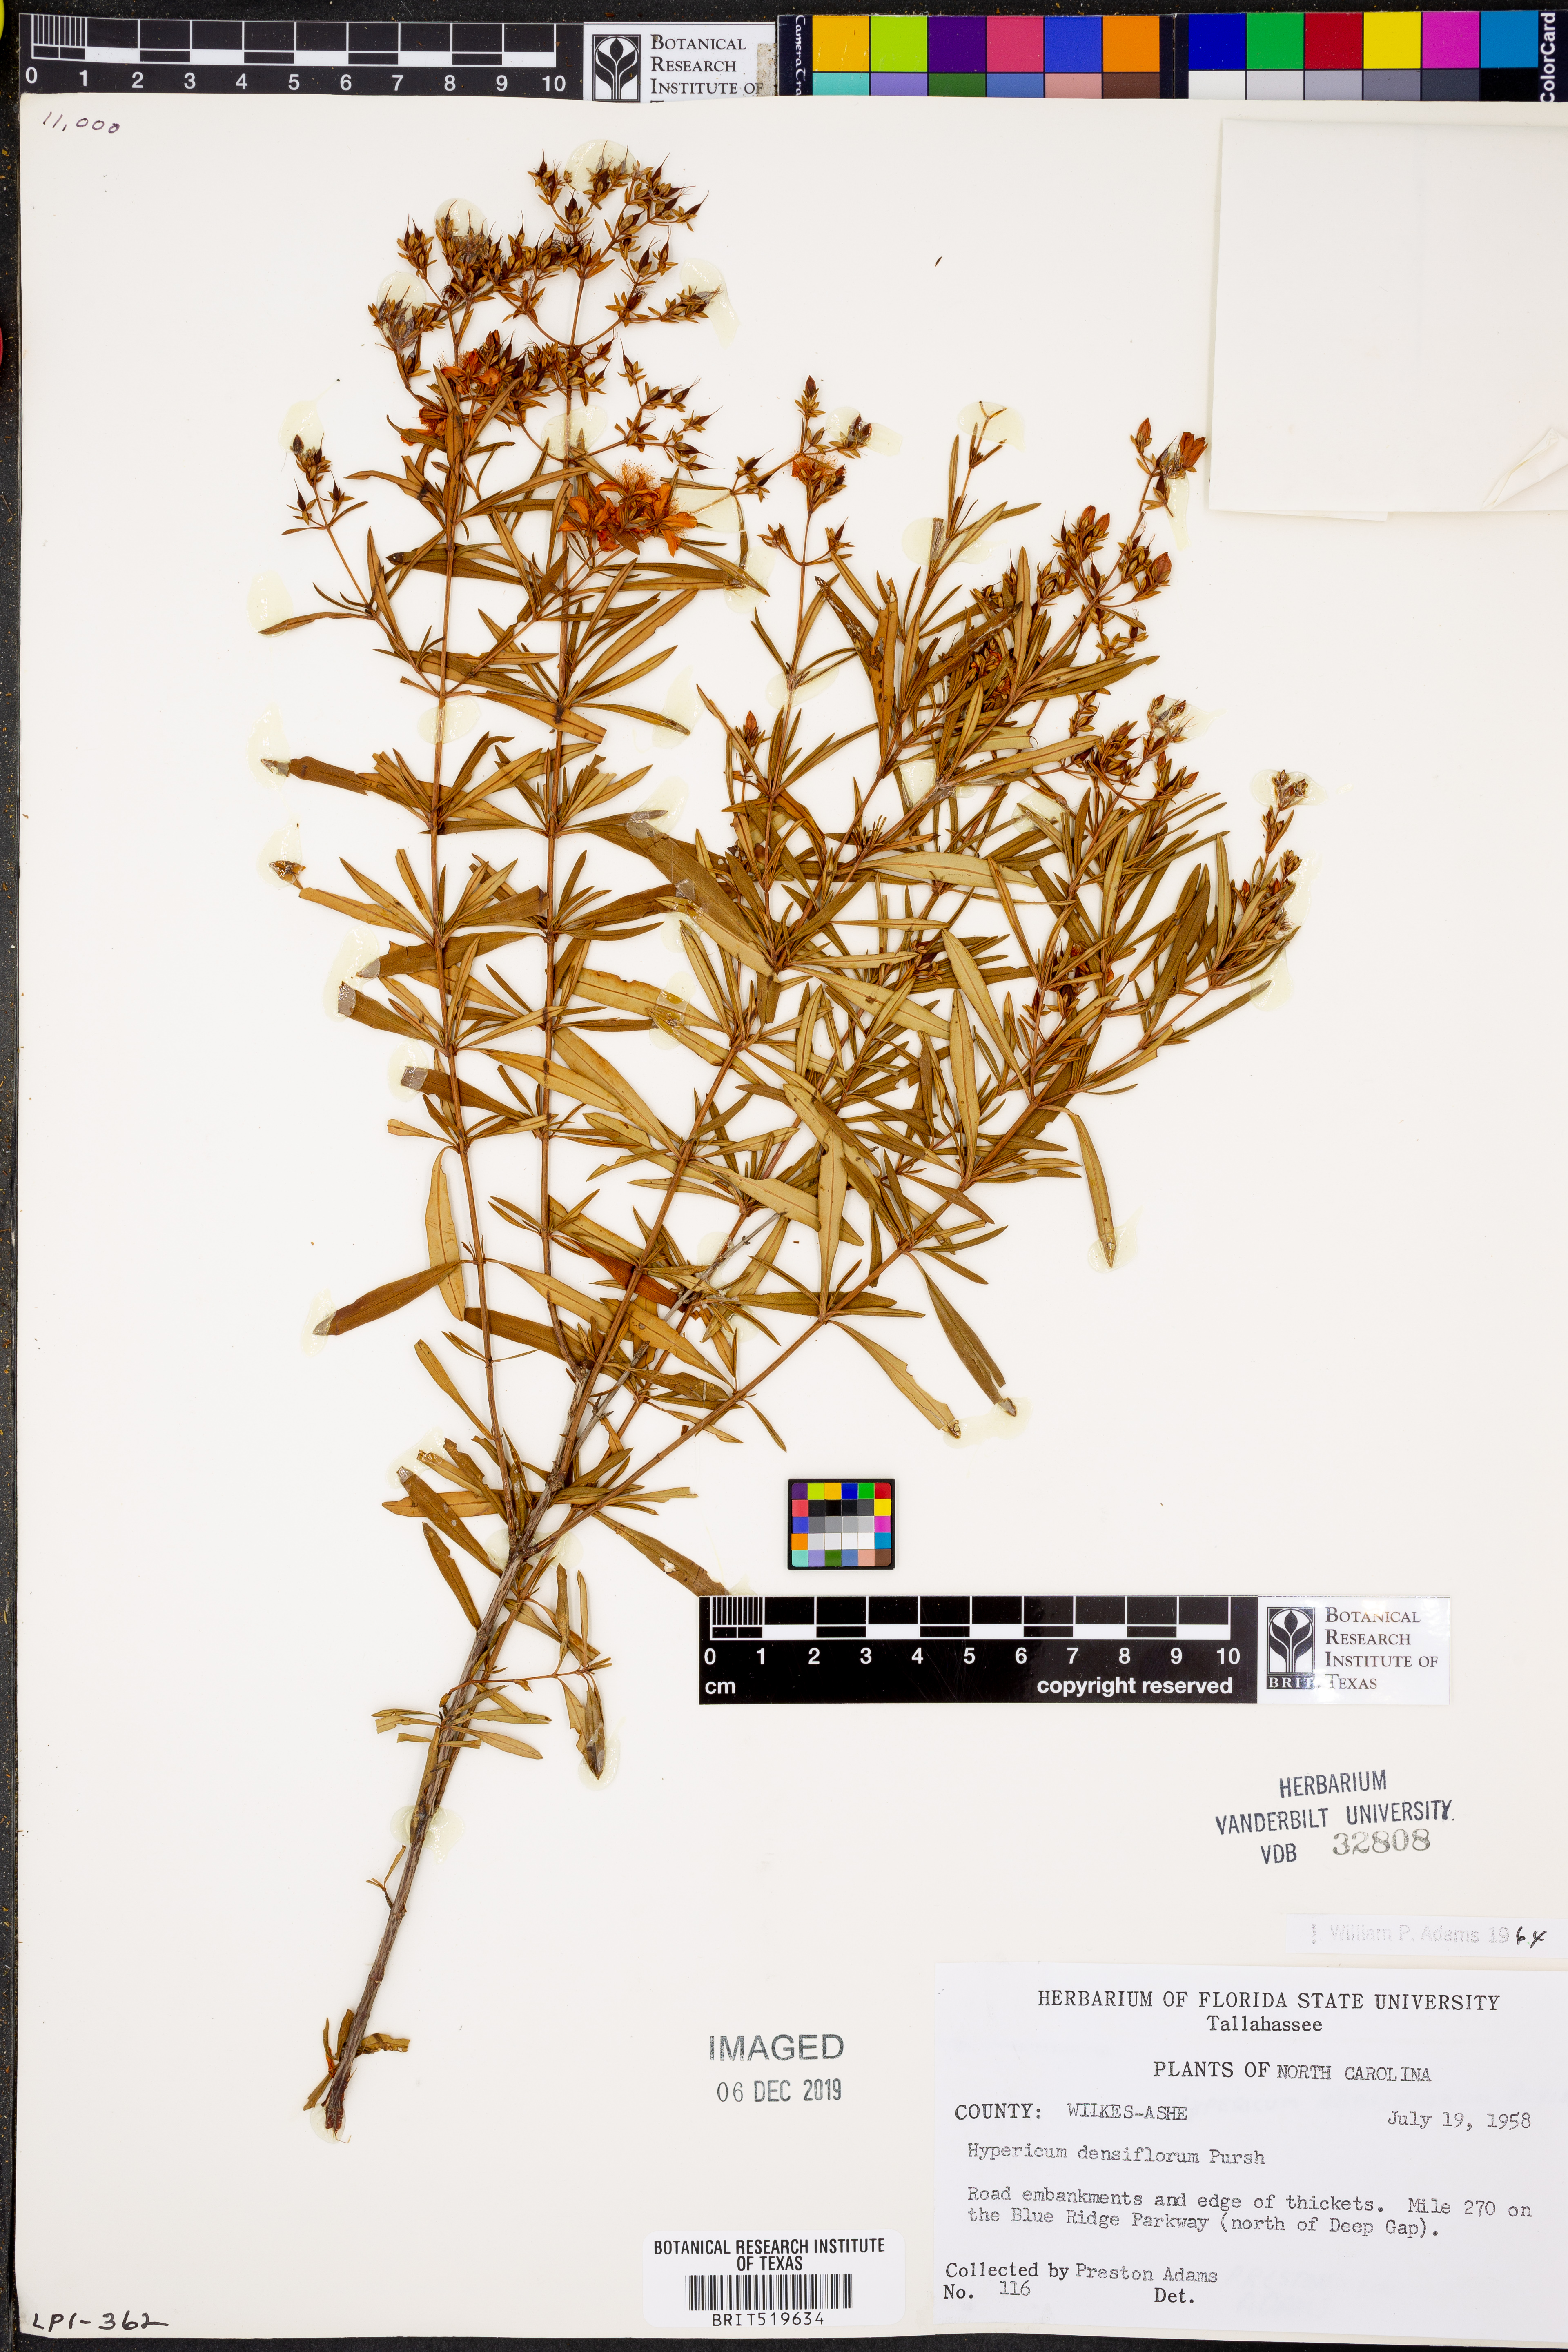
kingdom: Plantae
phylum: Tracheophyta
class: Magnoliopsida
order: Malpighiales
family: Hypericaceae
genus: Hypericum
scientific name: Hypericum densiflorum
